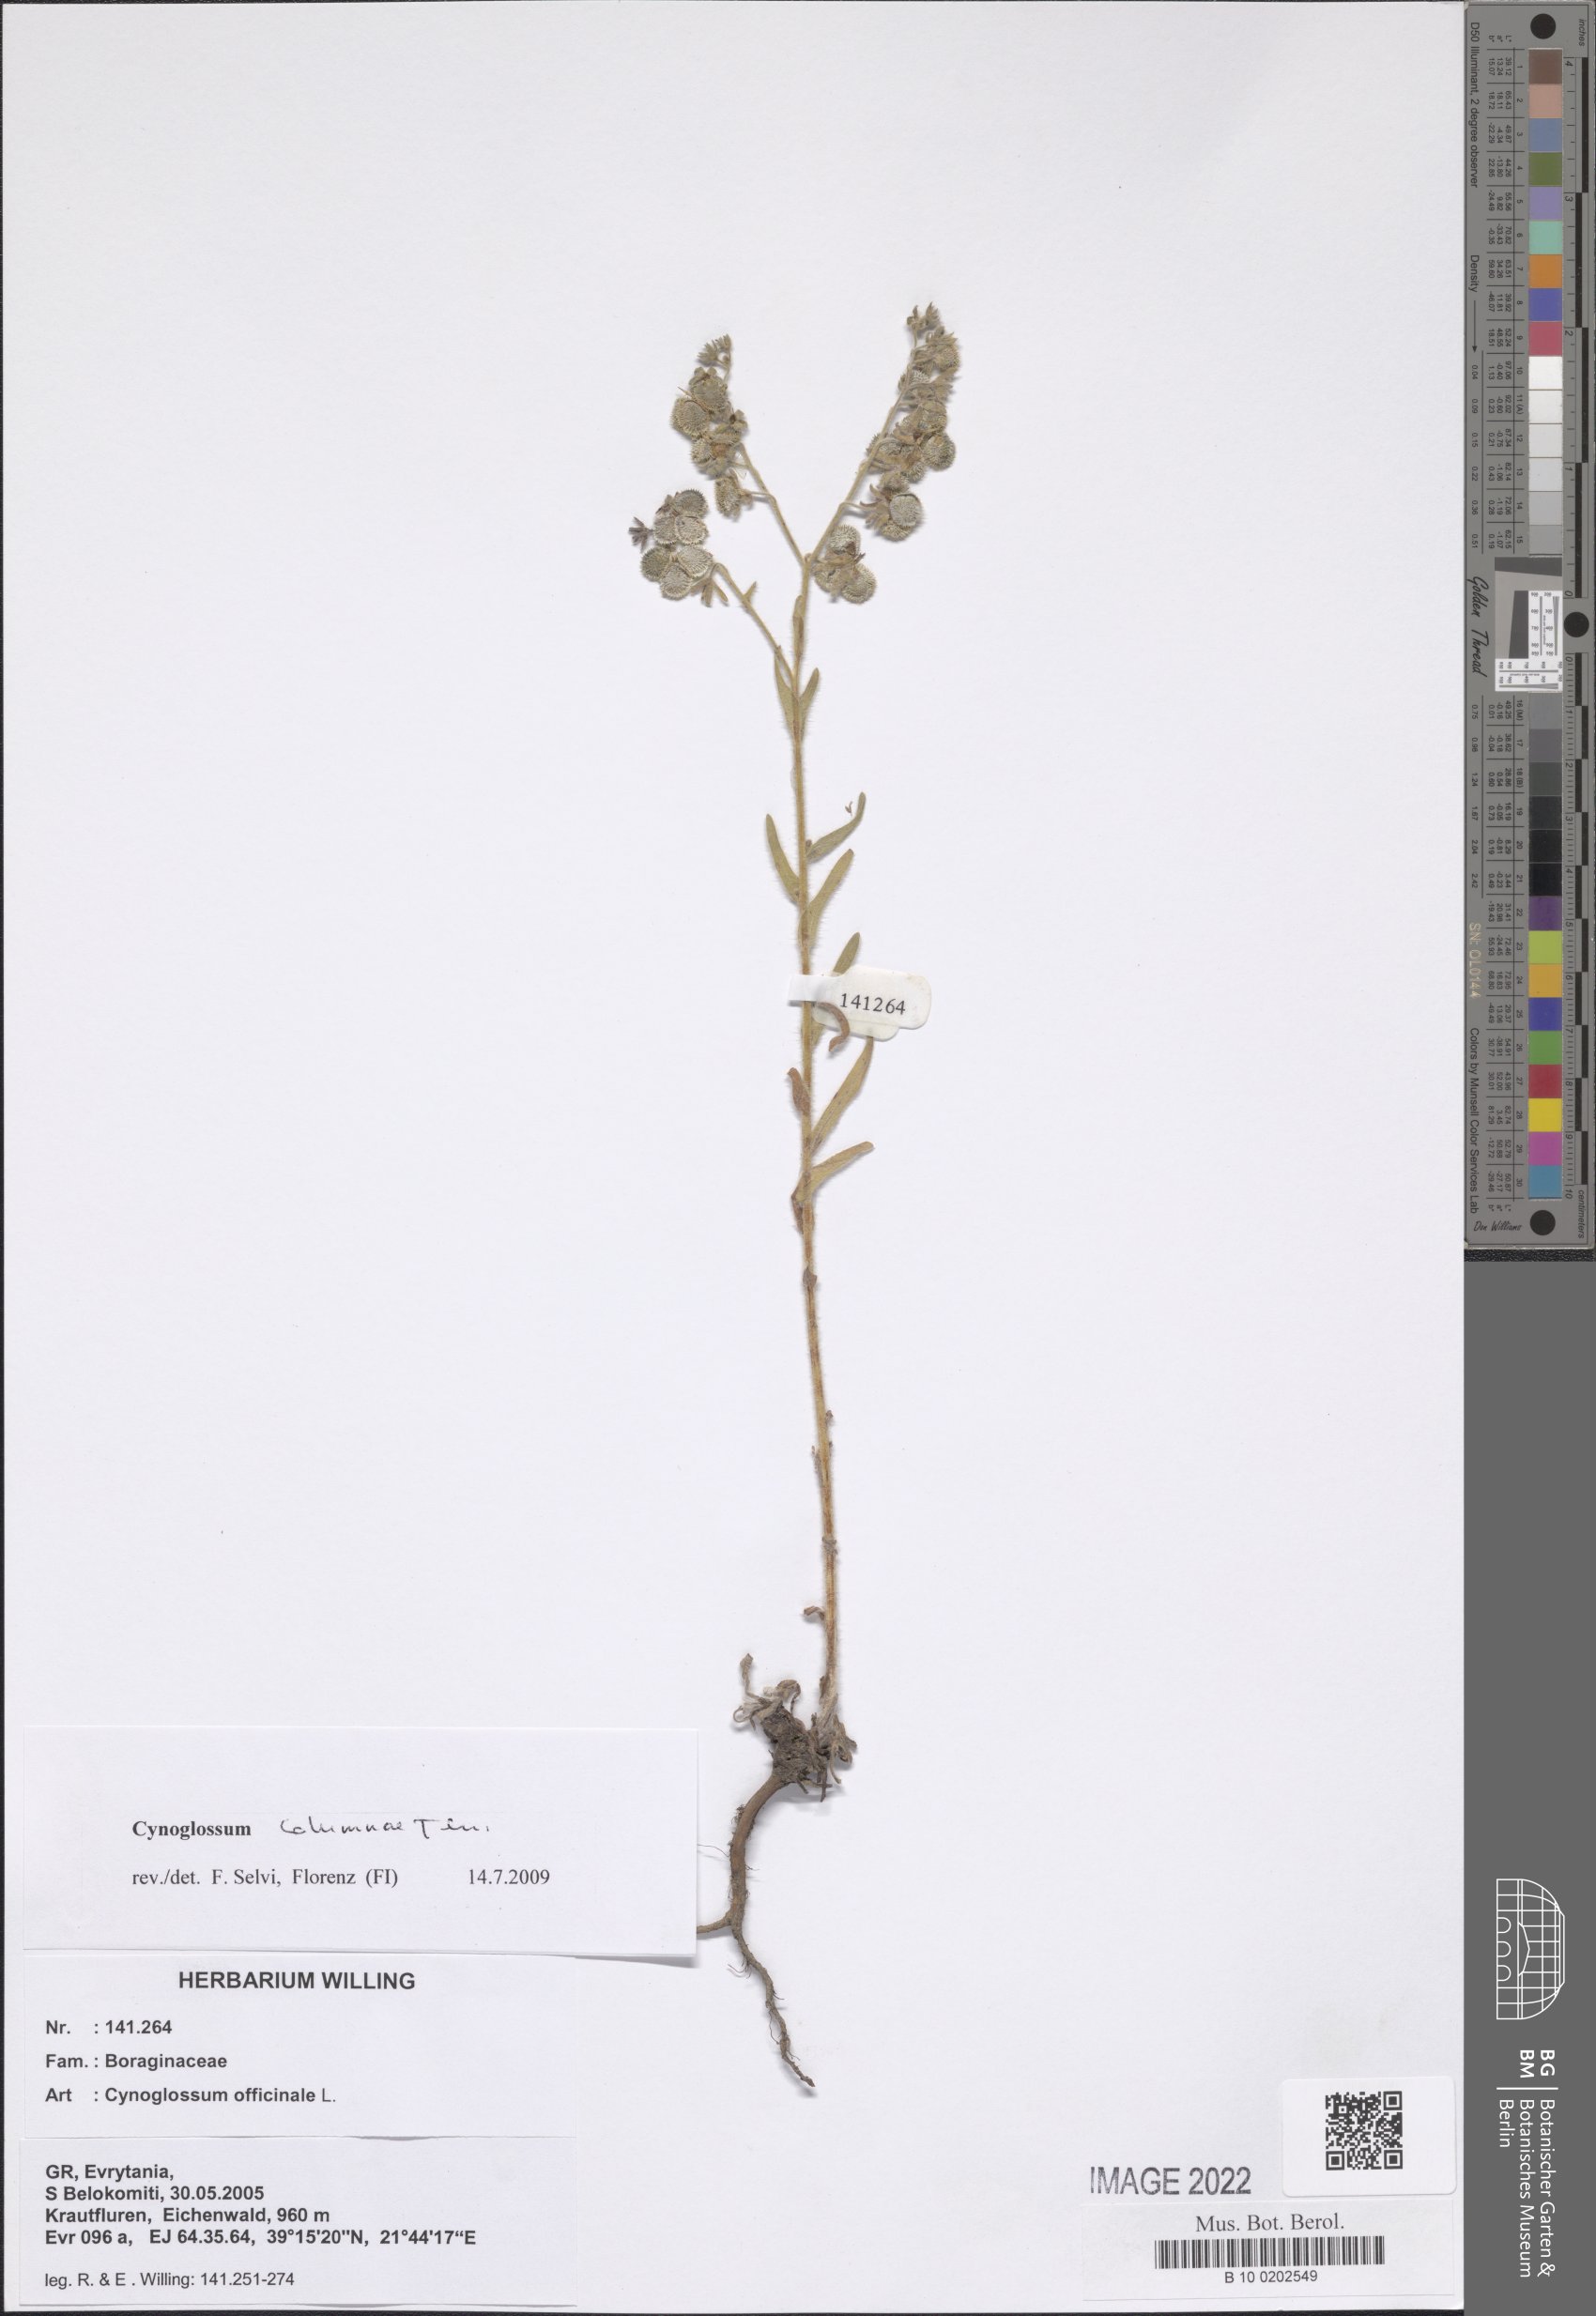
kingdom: Plantae
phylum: Tracheophyta
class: Magnoliopsida
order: Boraginales
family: Boraginaceae
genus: Rindera
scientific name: Rindera columnae
